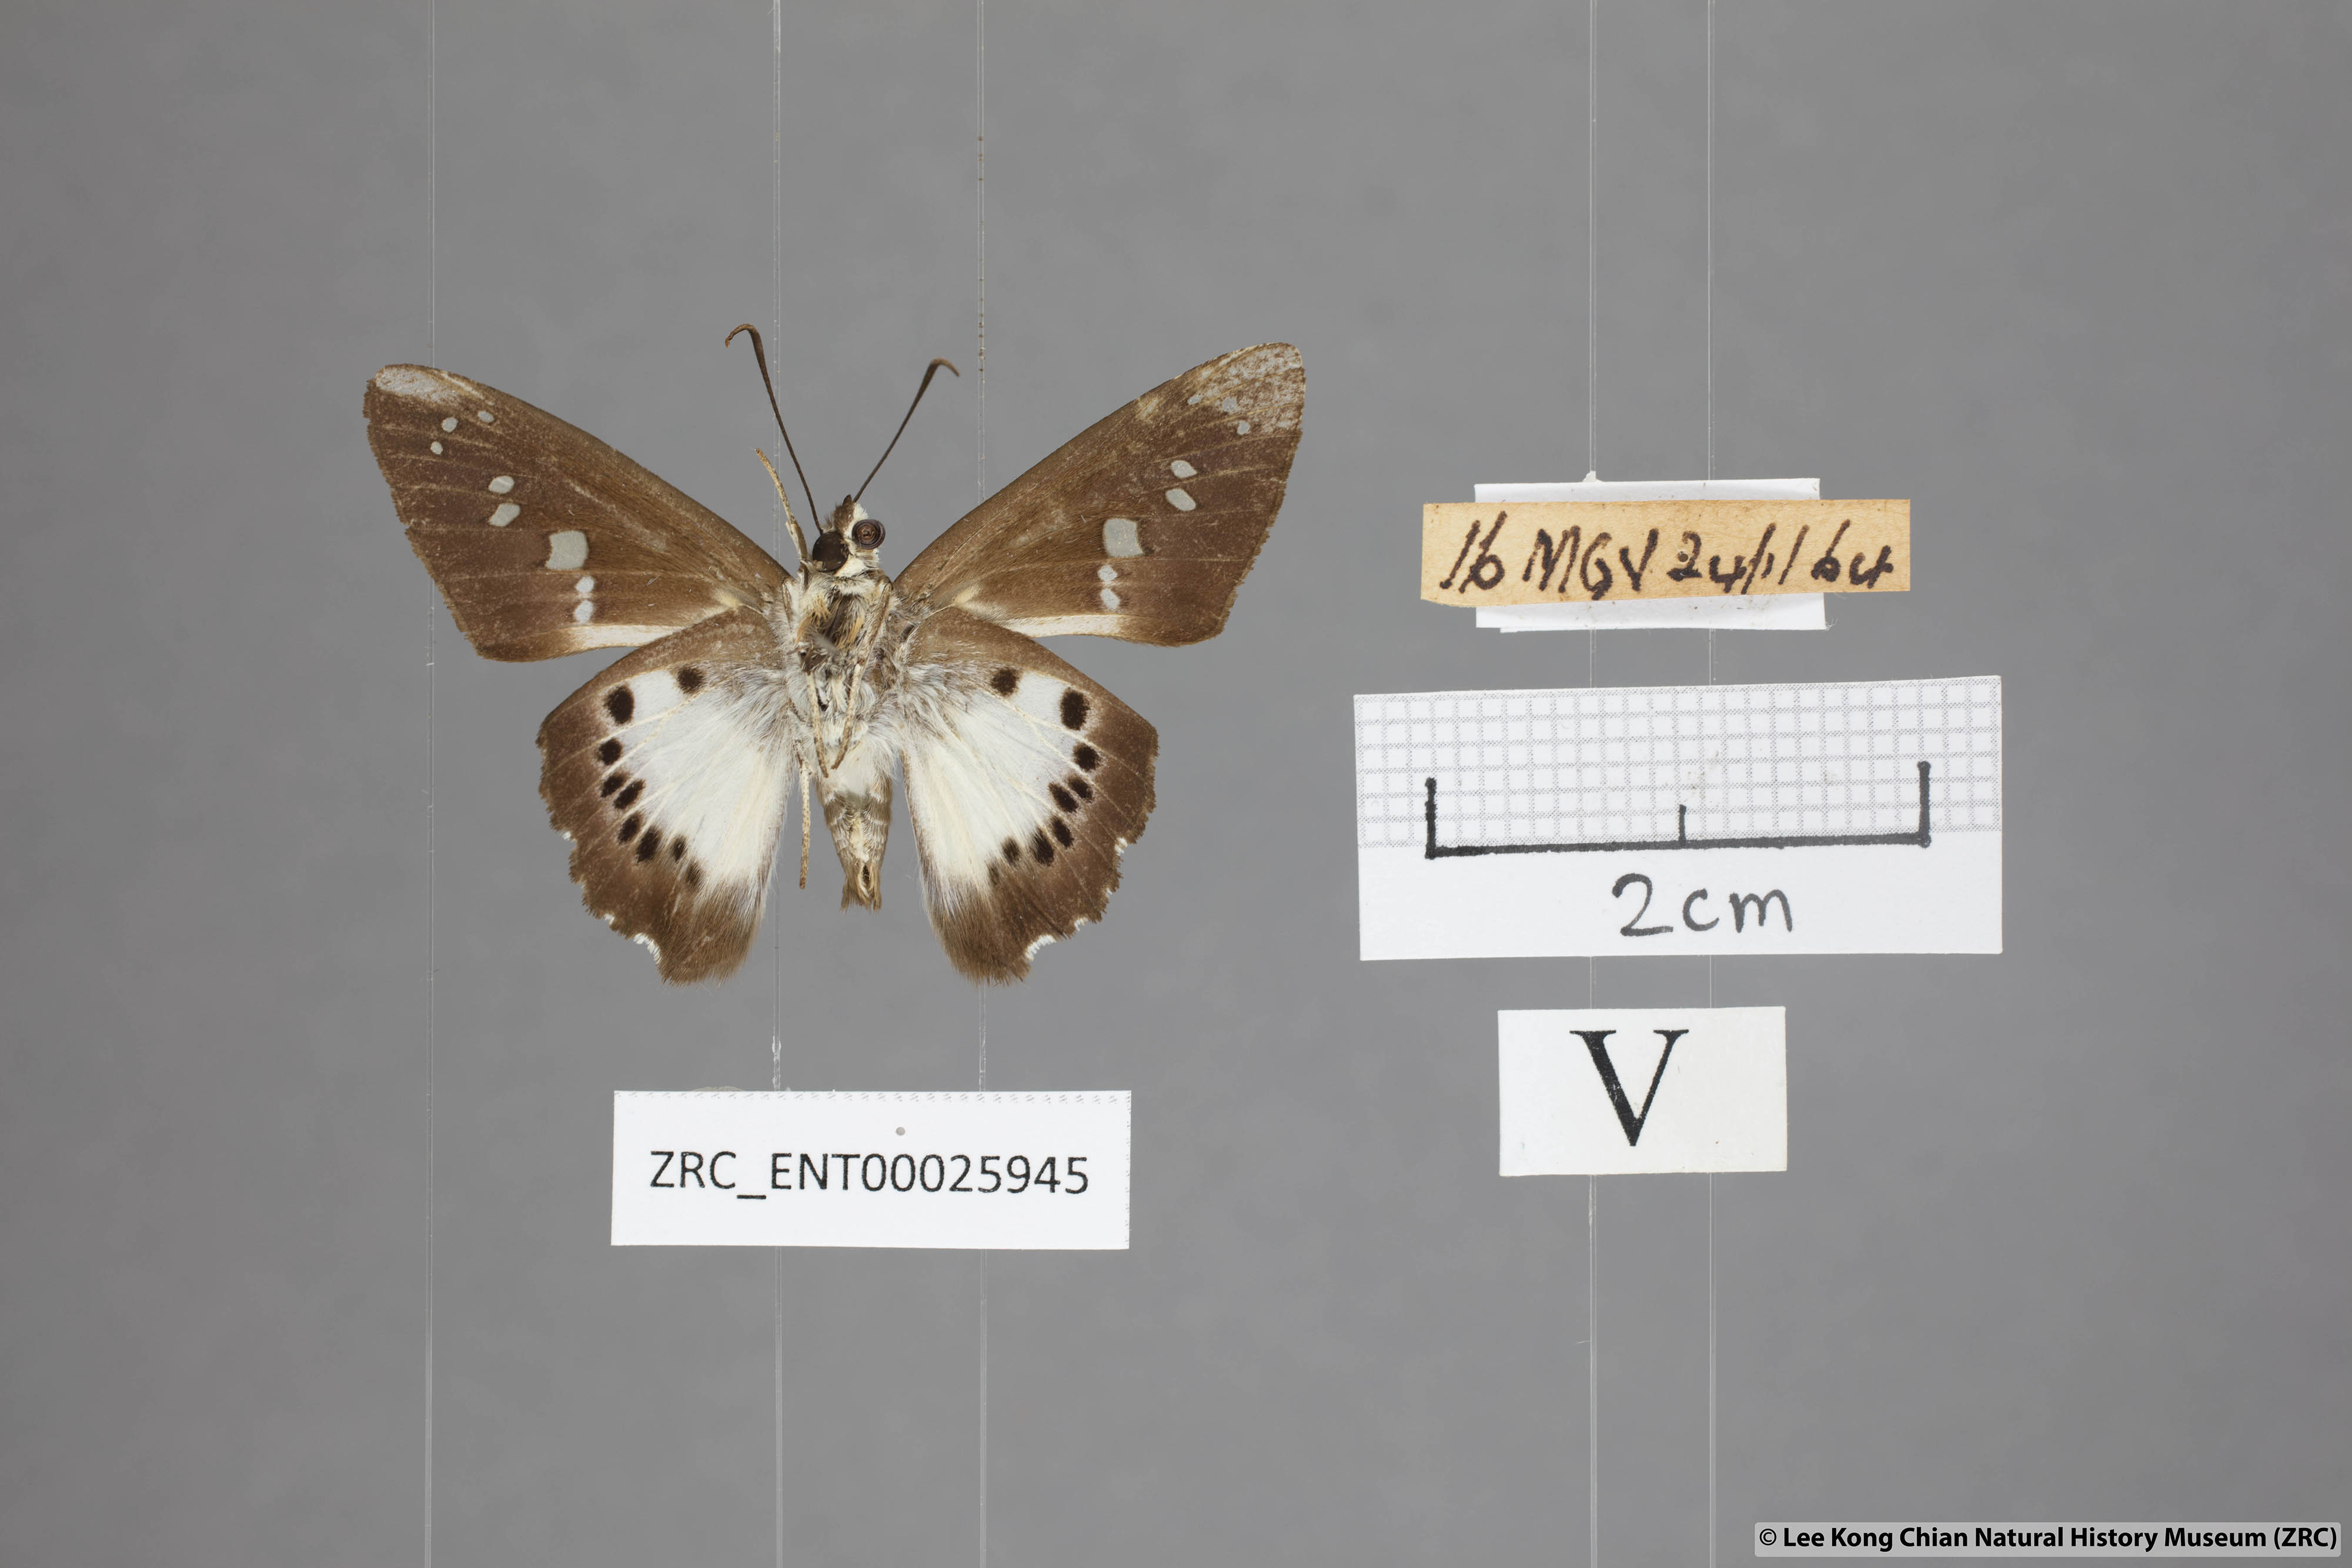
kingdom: Animalia
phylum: Arthropoda
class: Insecta
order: Lepidoptera
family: Hesperiidae
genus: Seseria
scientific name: Seseria affinis
